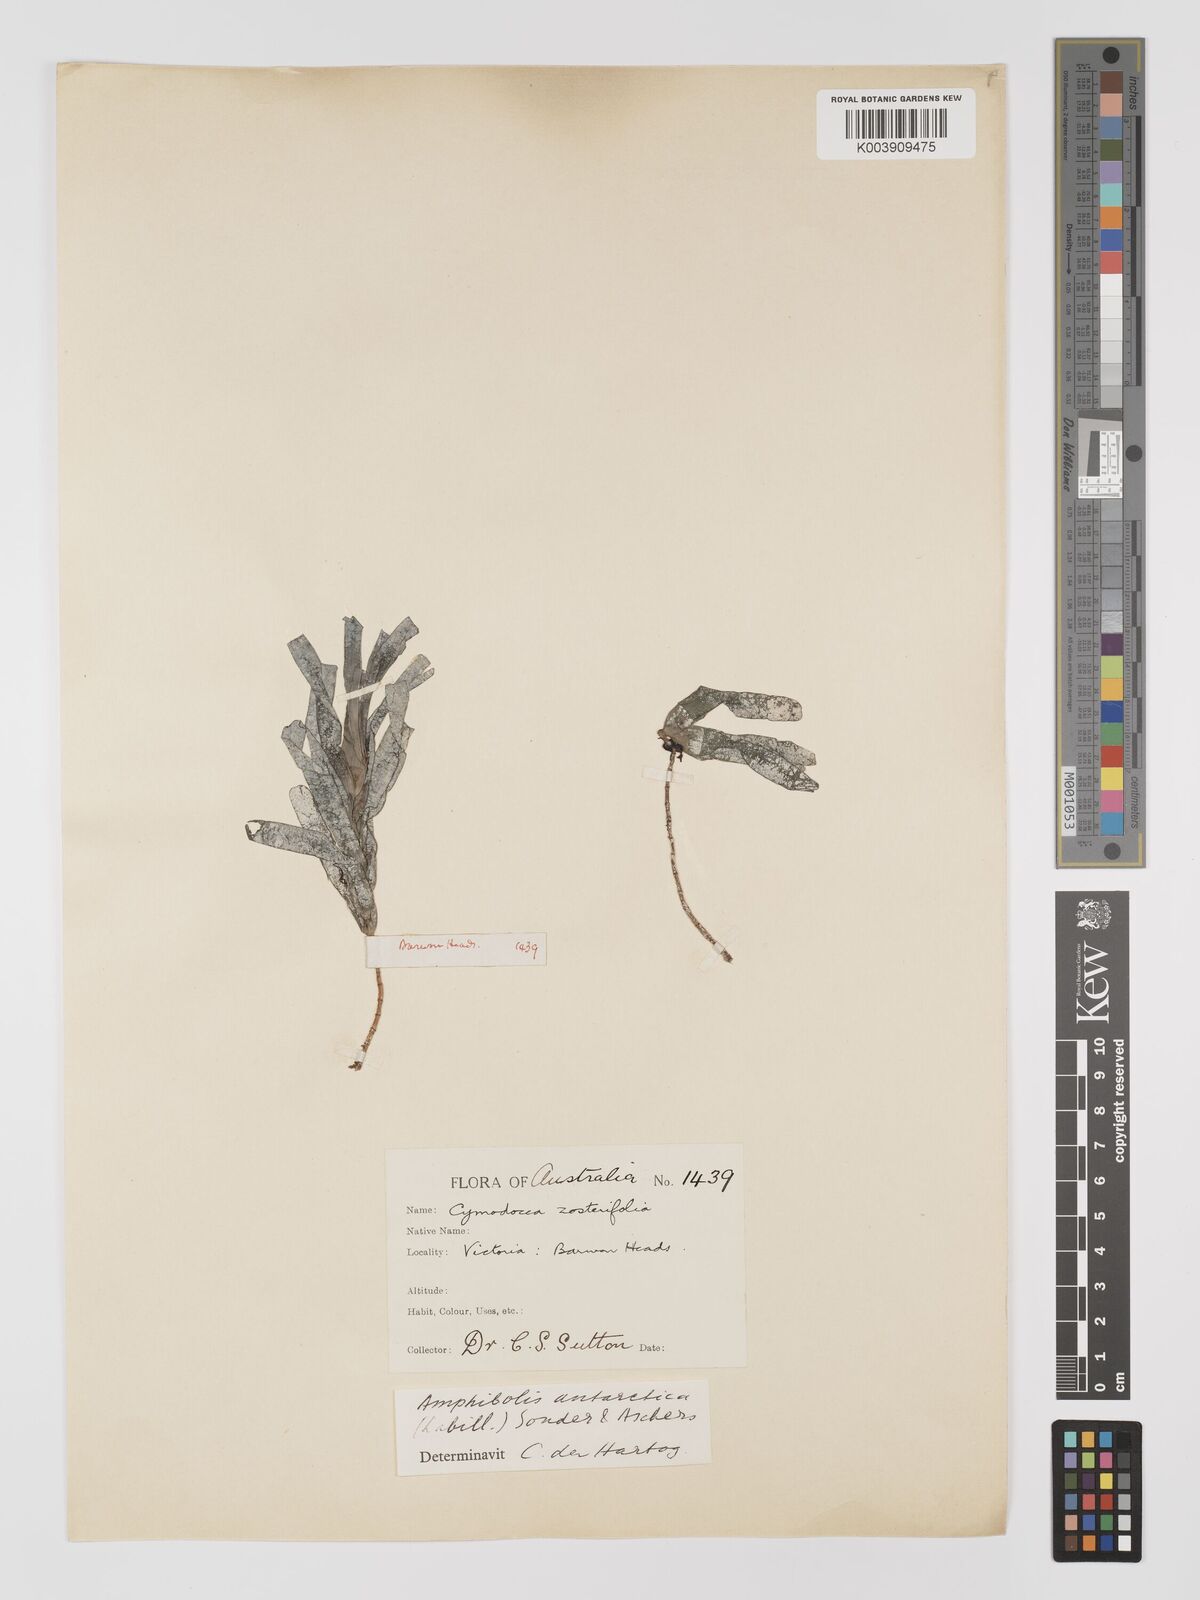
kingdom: Plantae
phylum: Tracheophyta
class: Liliopsida
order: Alismatales
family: Cymodoceaceae
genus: Amphibolis
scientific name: Amphibolis antarctica
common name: Species code: aa
